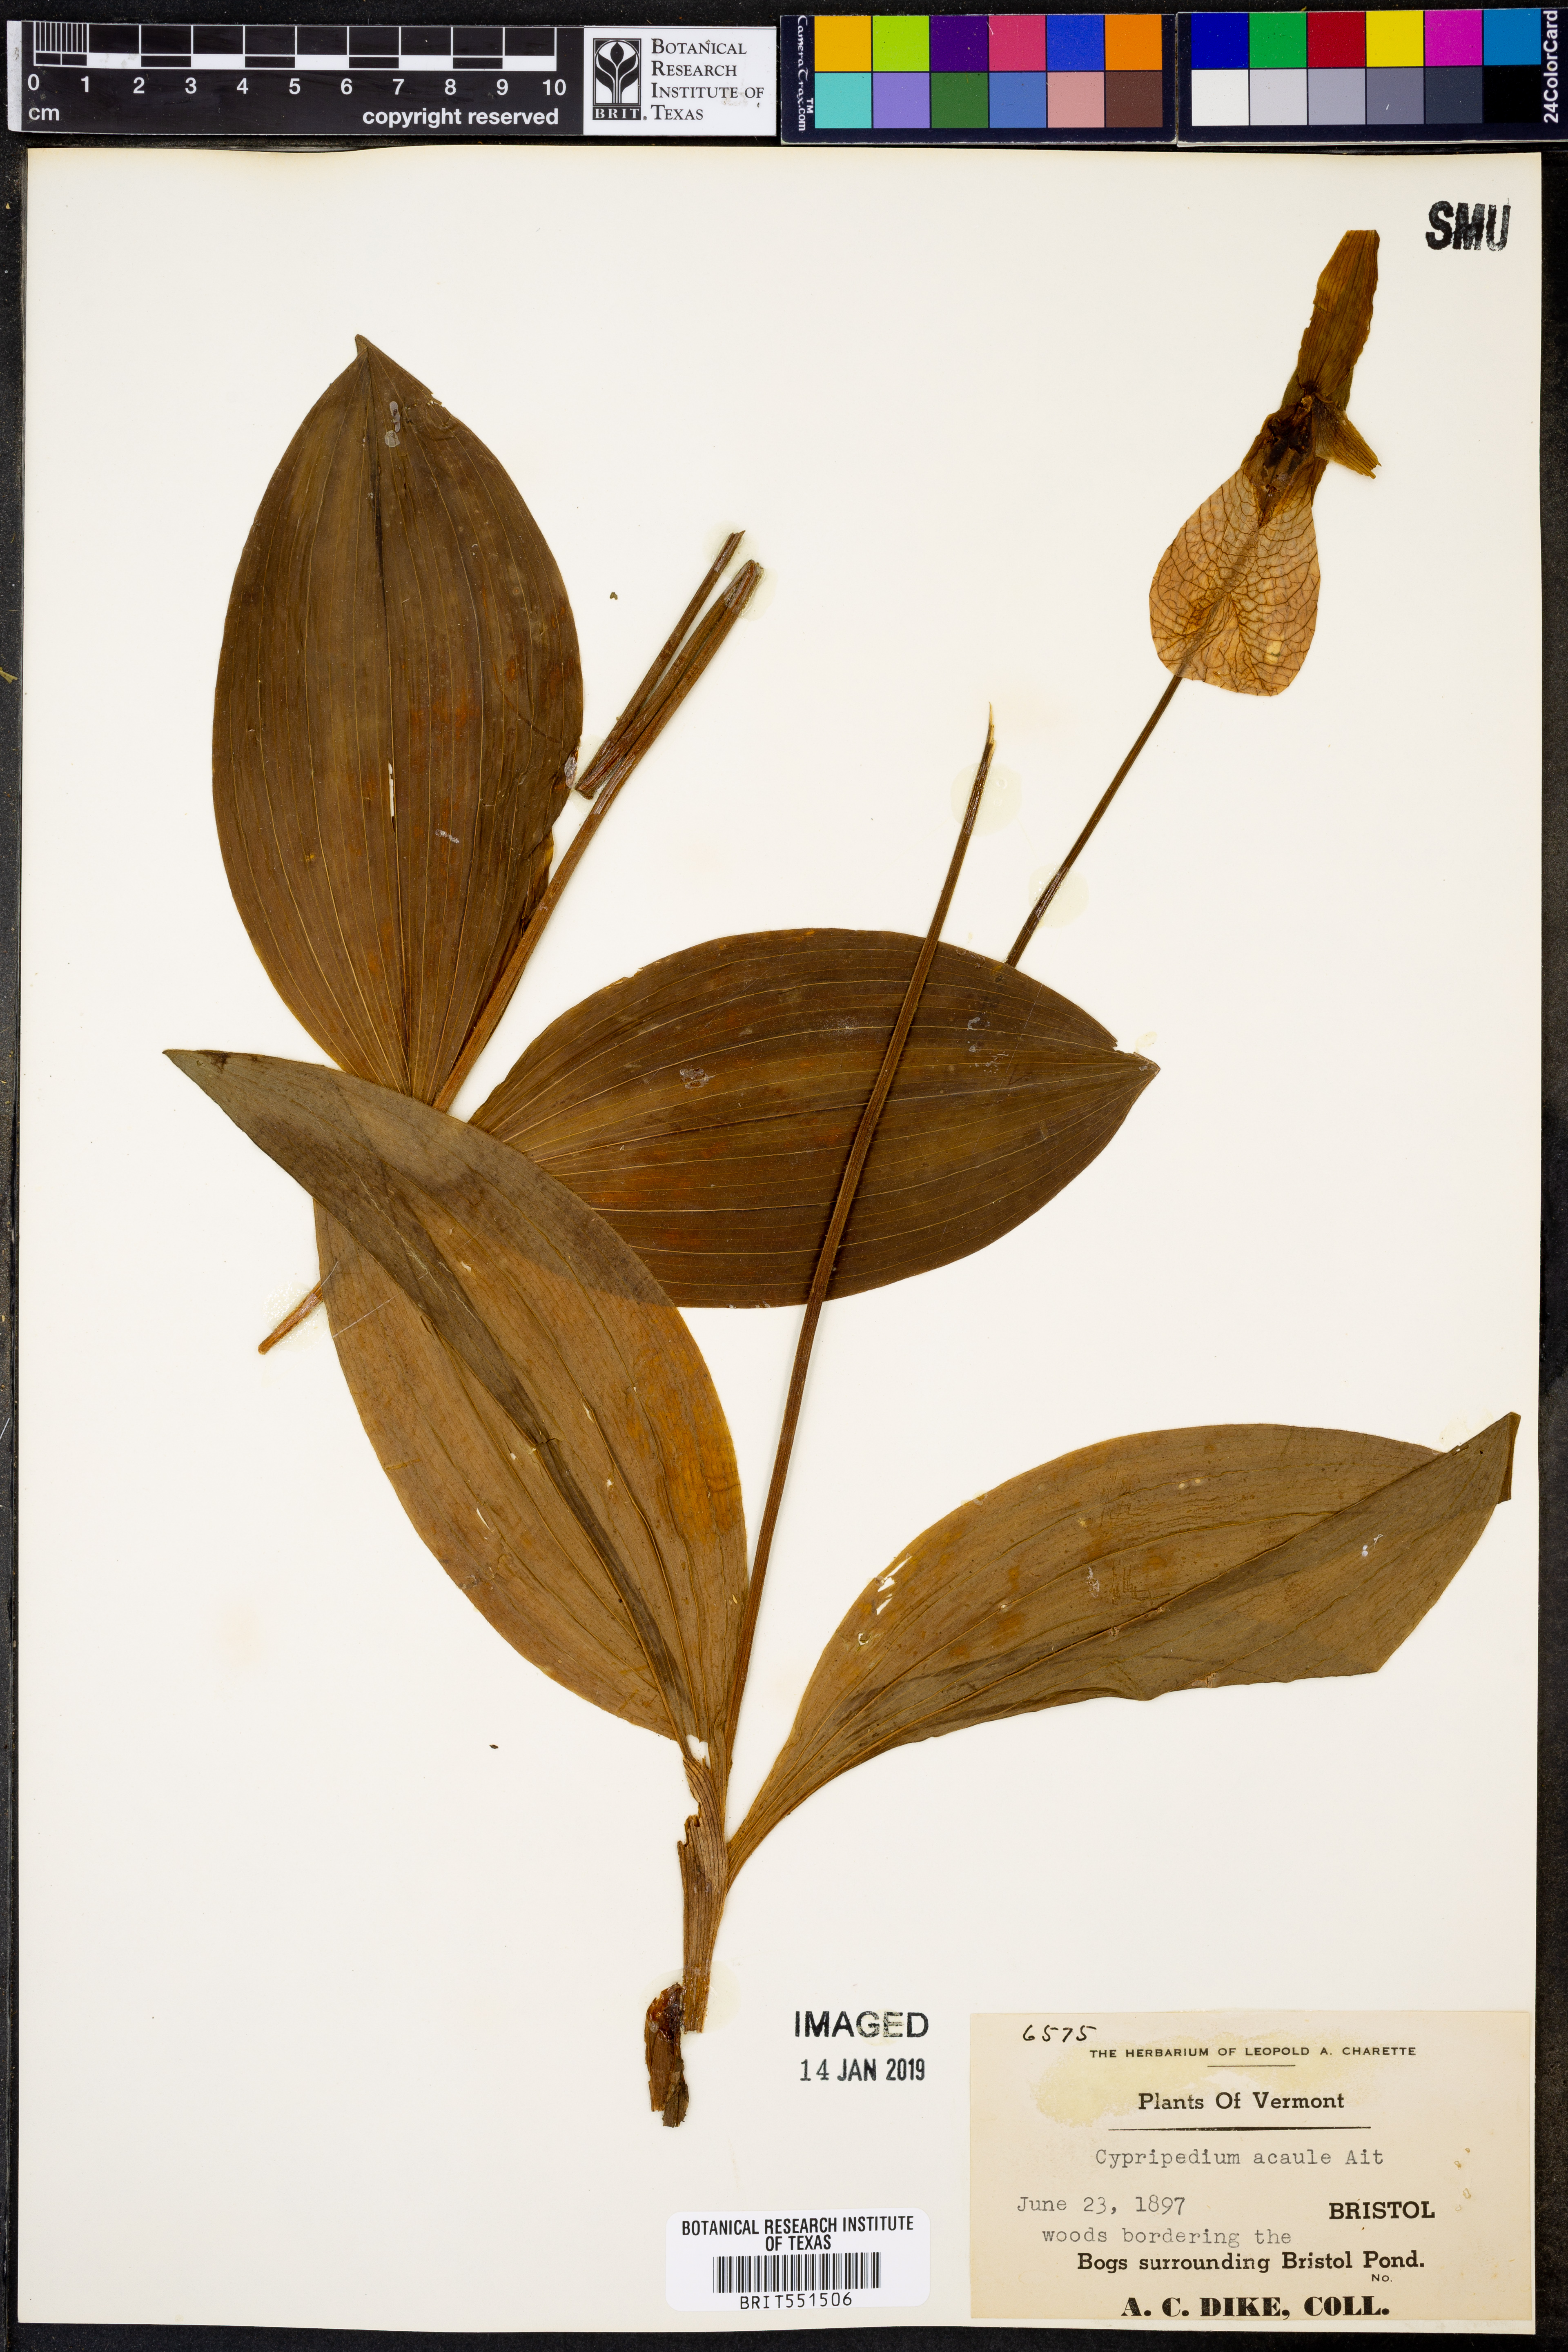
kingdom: Plantae
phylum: Tracheophyta
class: Liliopsida
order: Asparagales
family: Orchidaceae
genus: Cypripedium
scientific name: Cypripedium acaule
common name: Pink lady's-slipper
